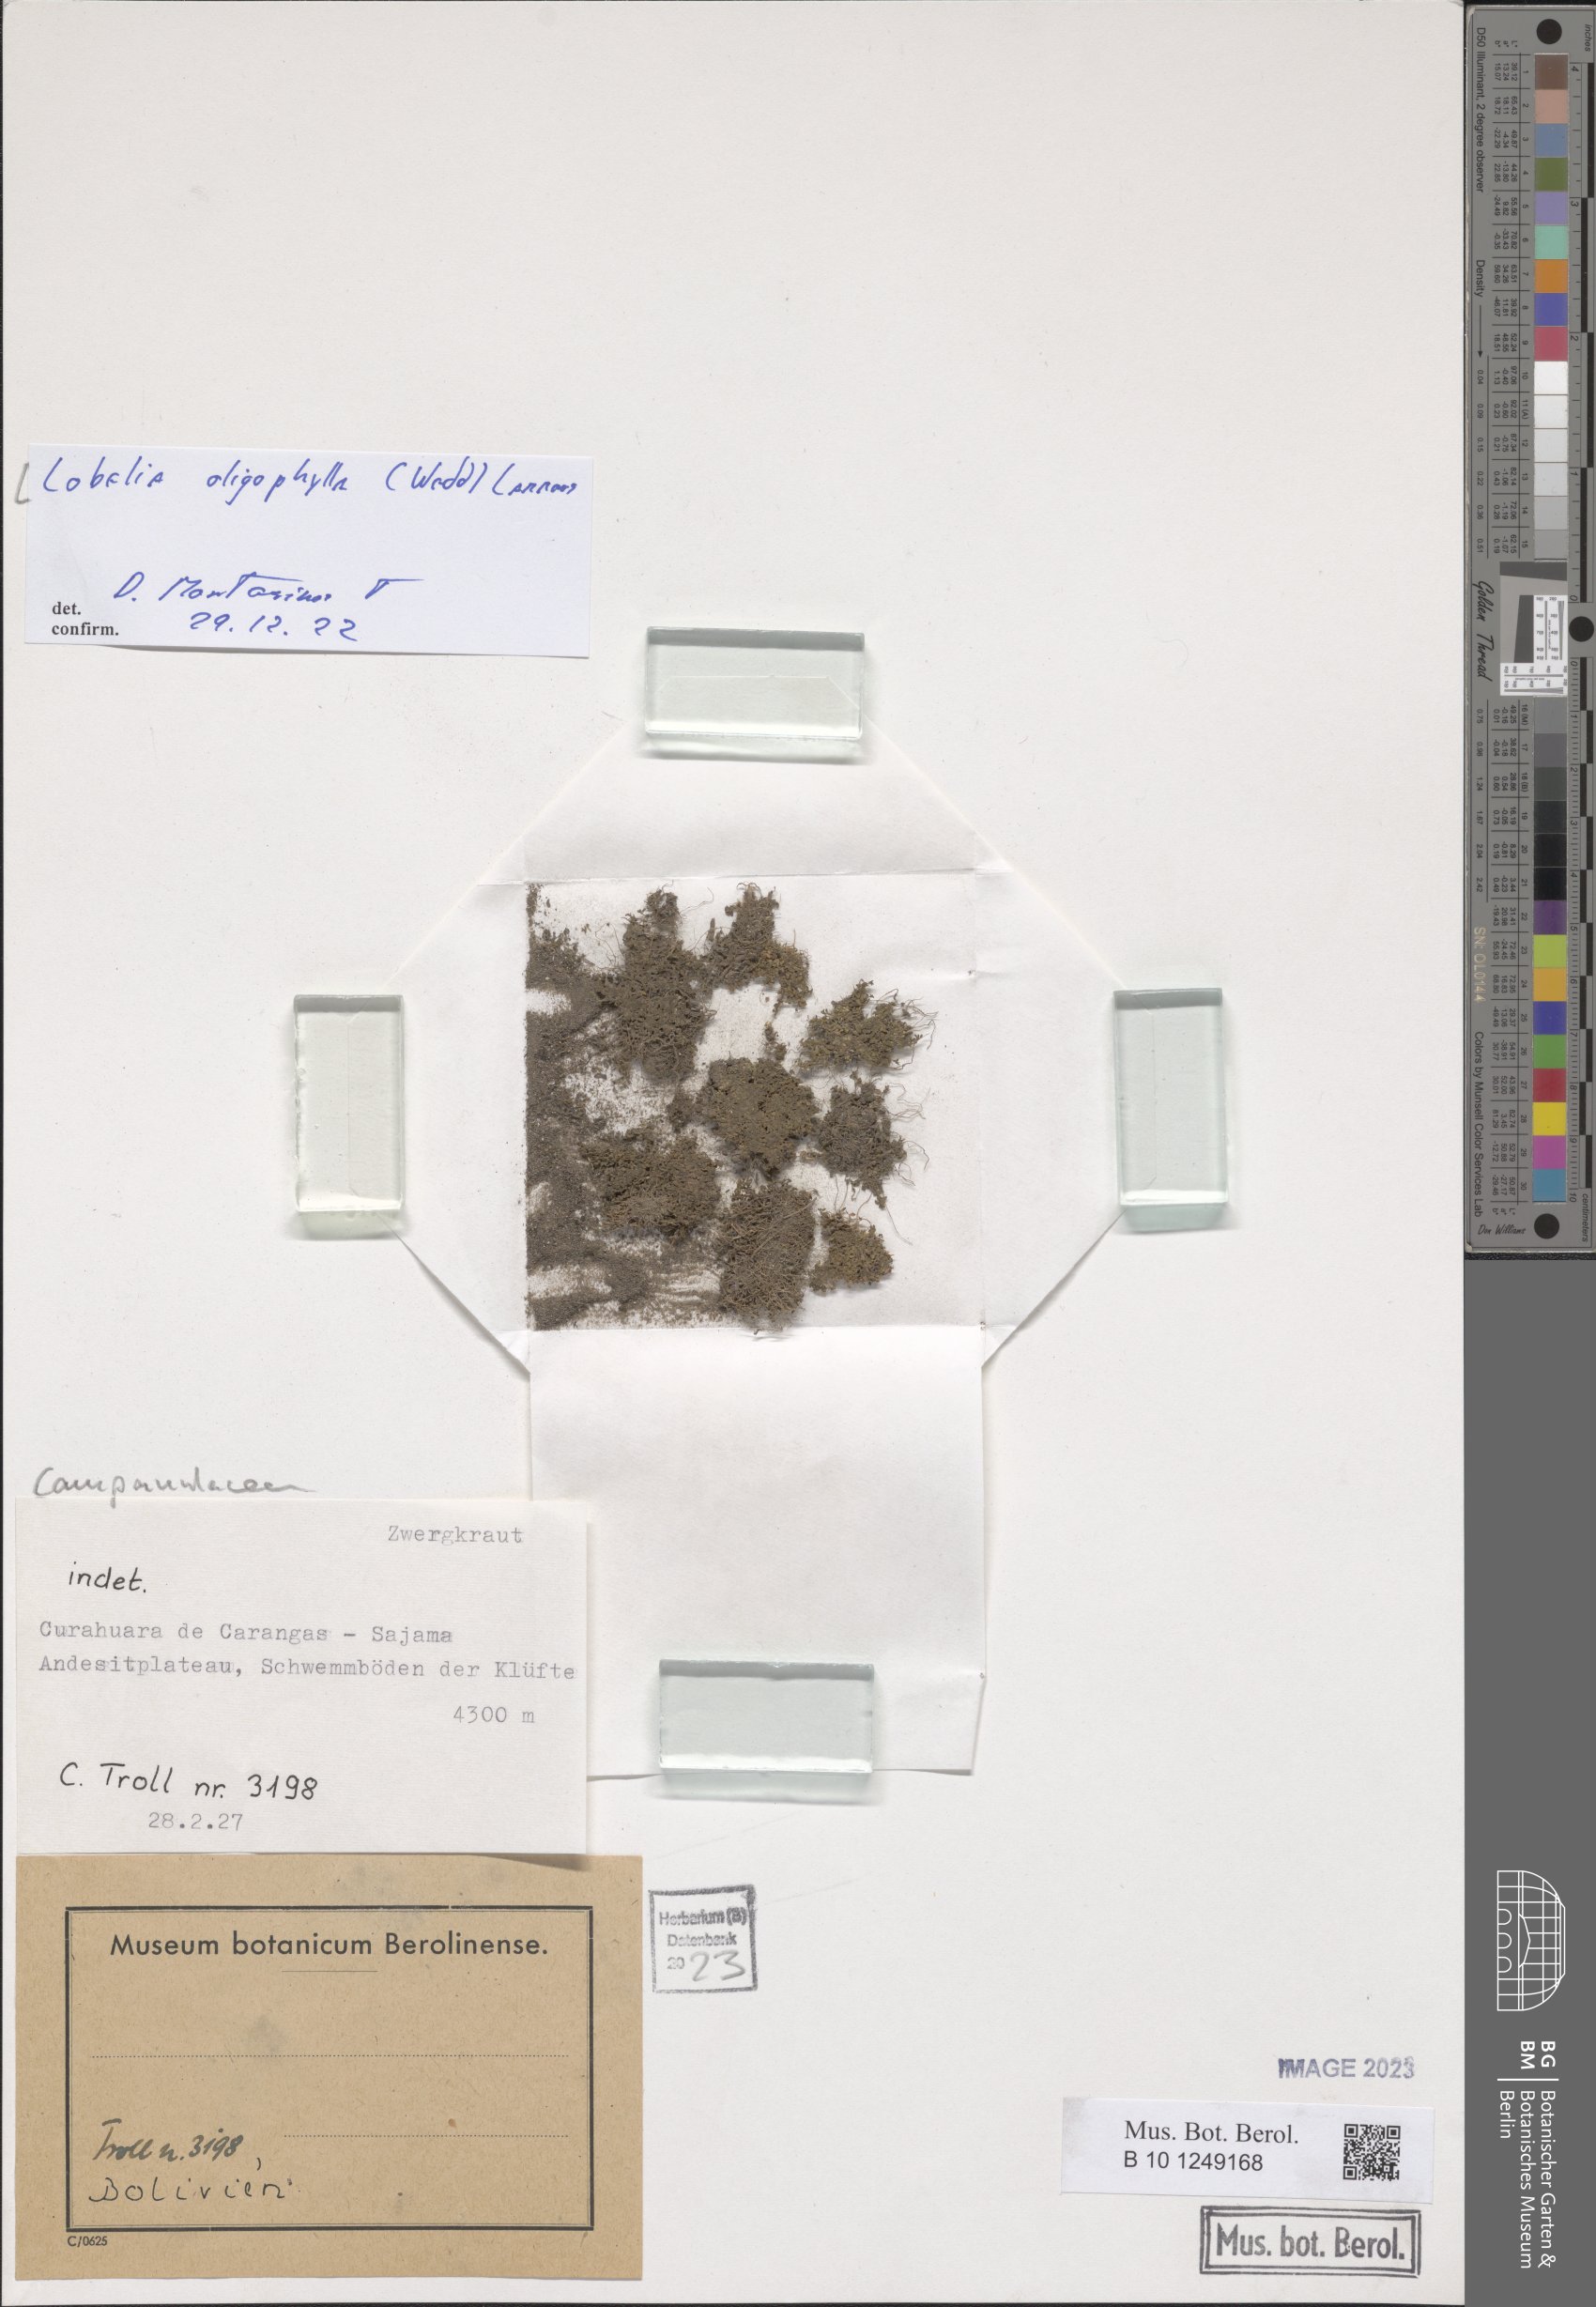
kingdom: Plantae
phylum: Tracheophyta
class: Magnoliopsida
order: Asterales
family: Campanulaceae
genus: Lobelia
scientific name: Lobelia oligophylla
